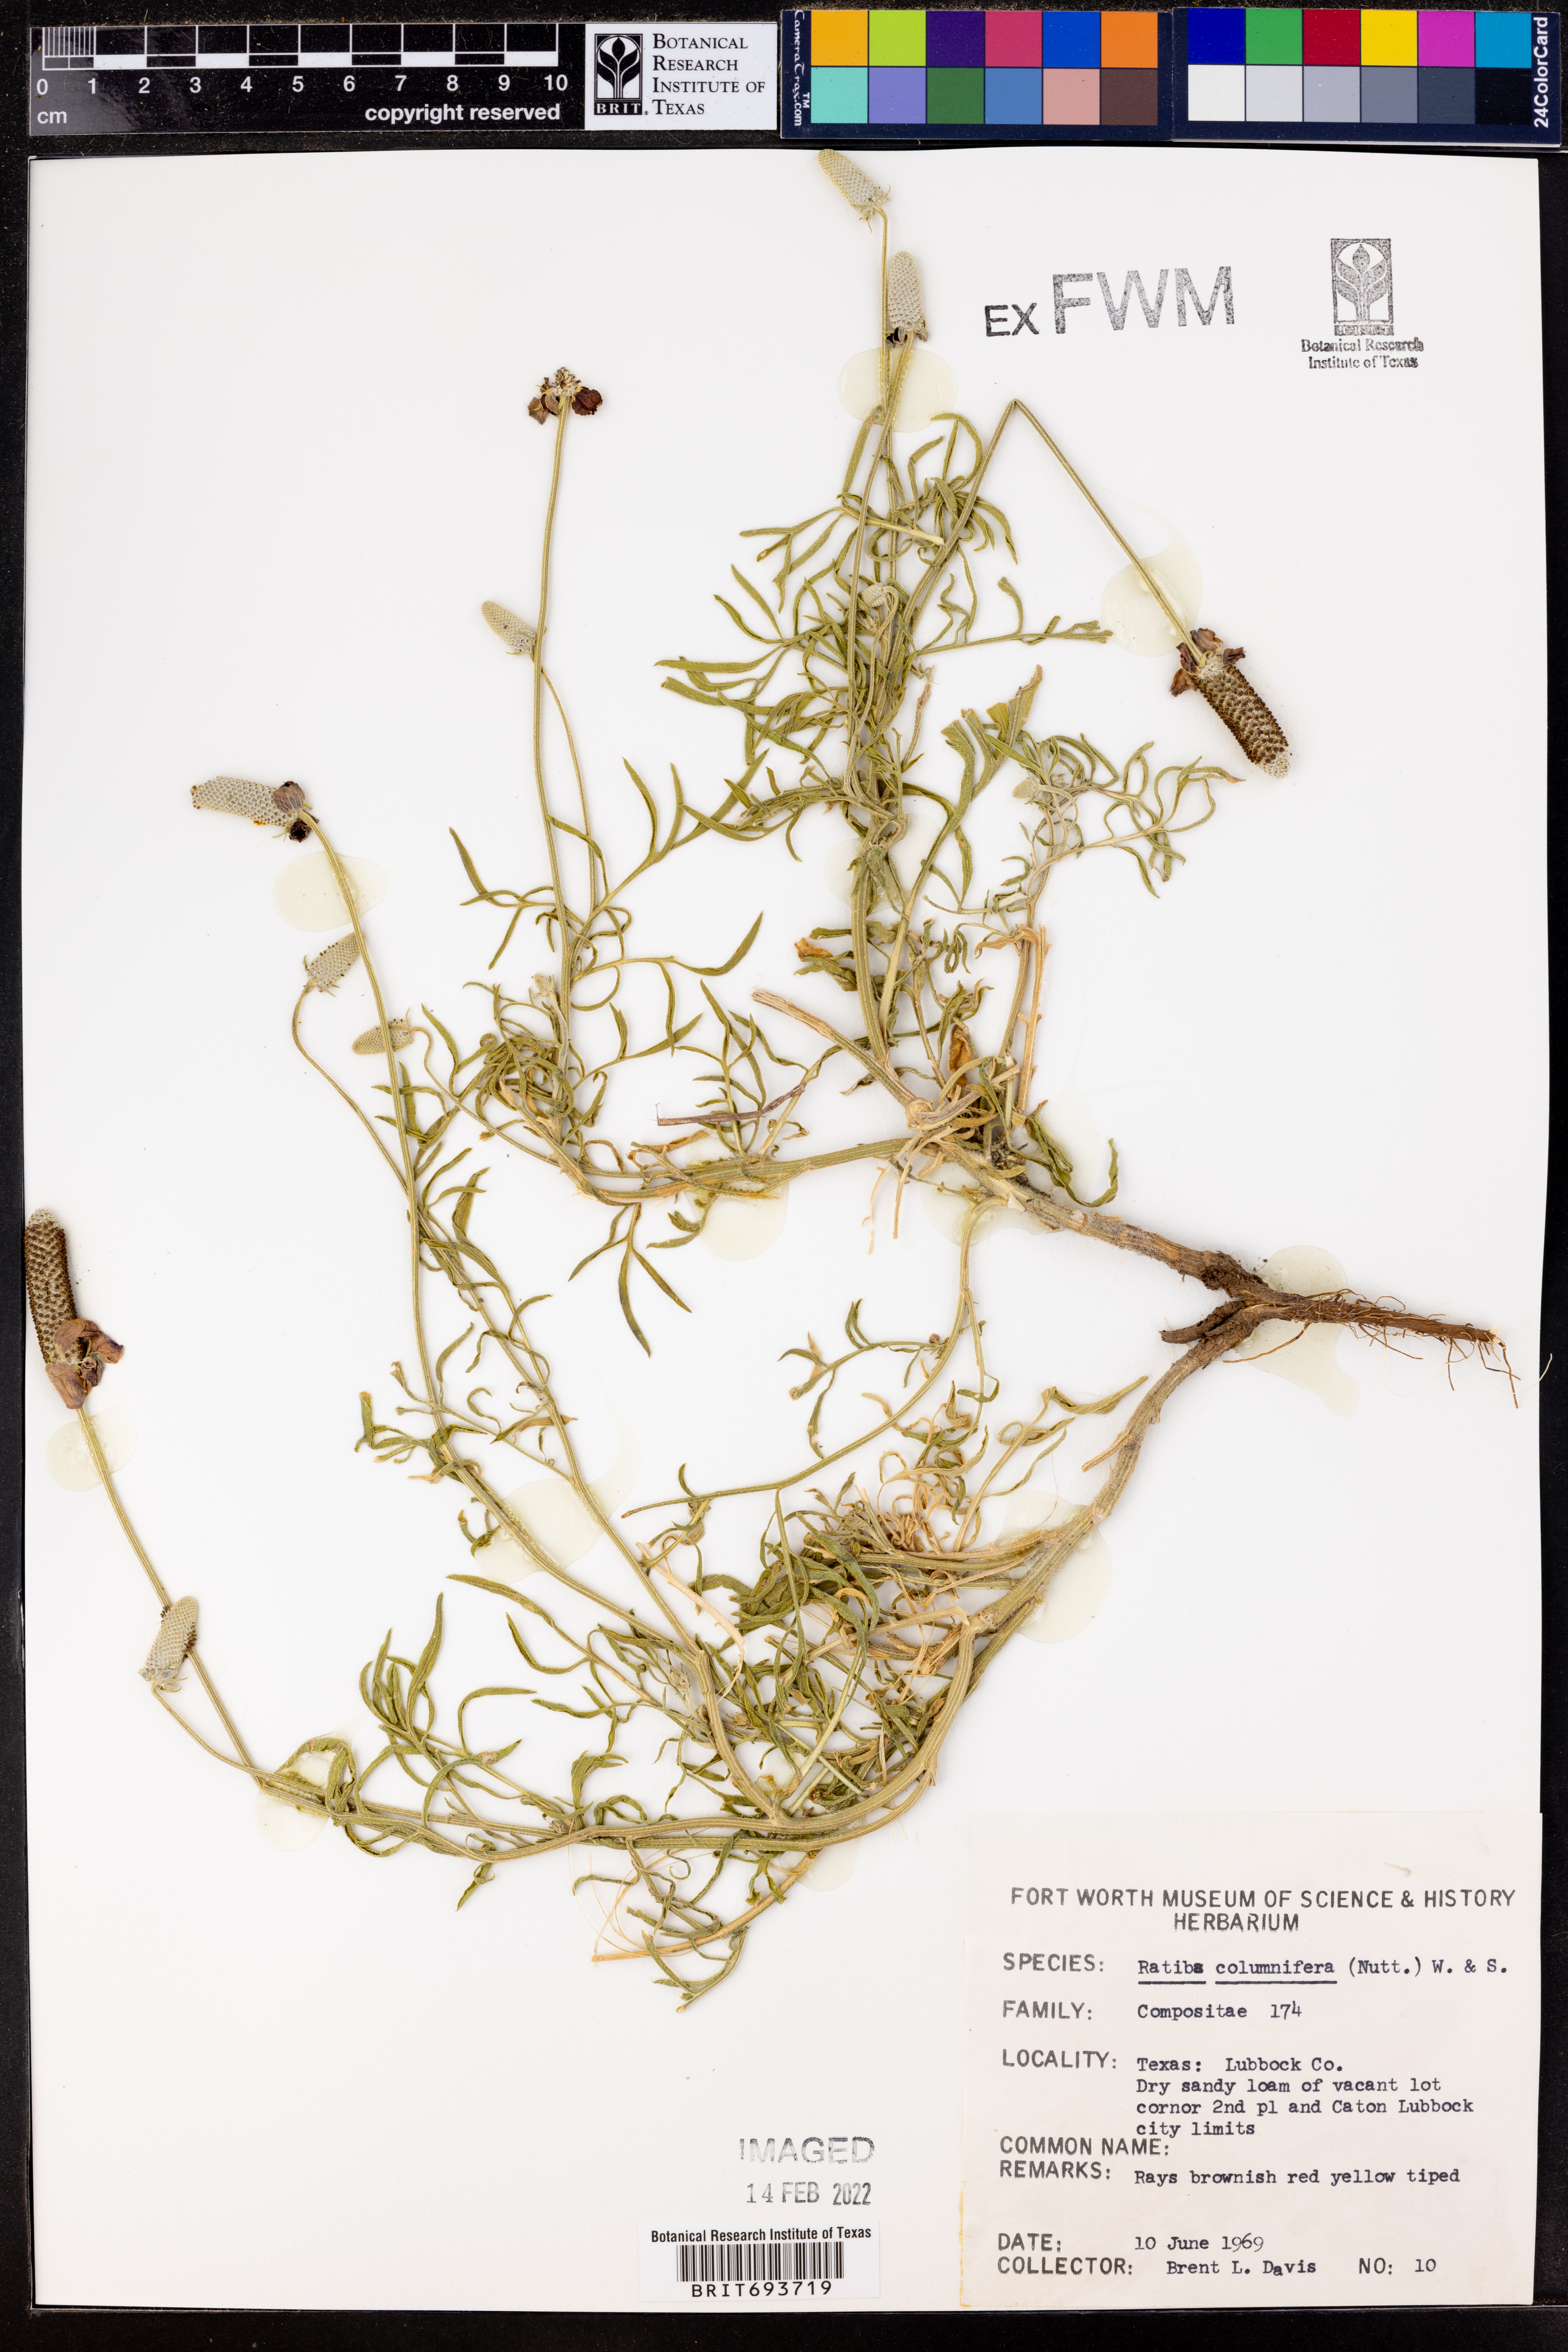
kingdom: Plantae
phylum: Tracheophyta
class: Magnoliopsida
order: Asterales
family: Asteraceae
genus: Ratibida
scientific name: Ratibida columnifera
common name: Prairie coneflower
